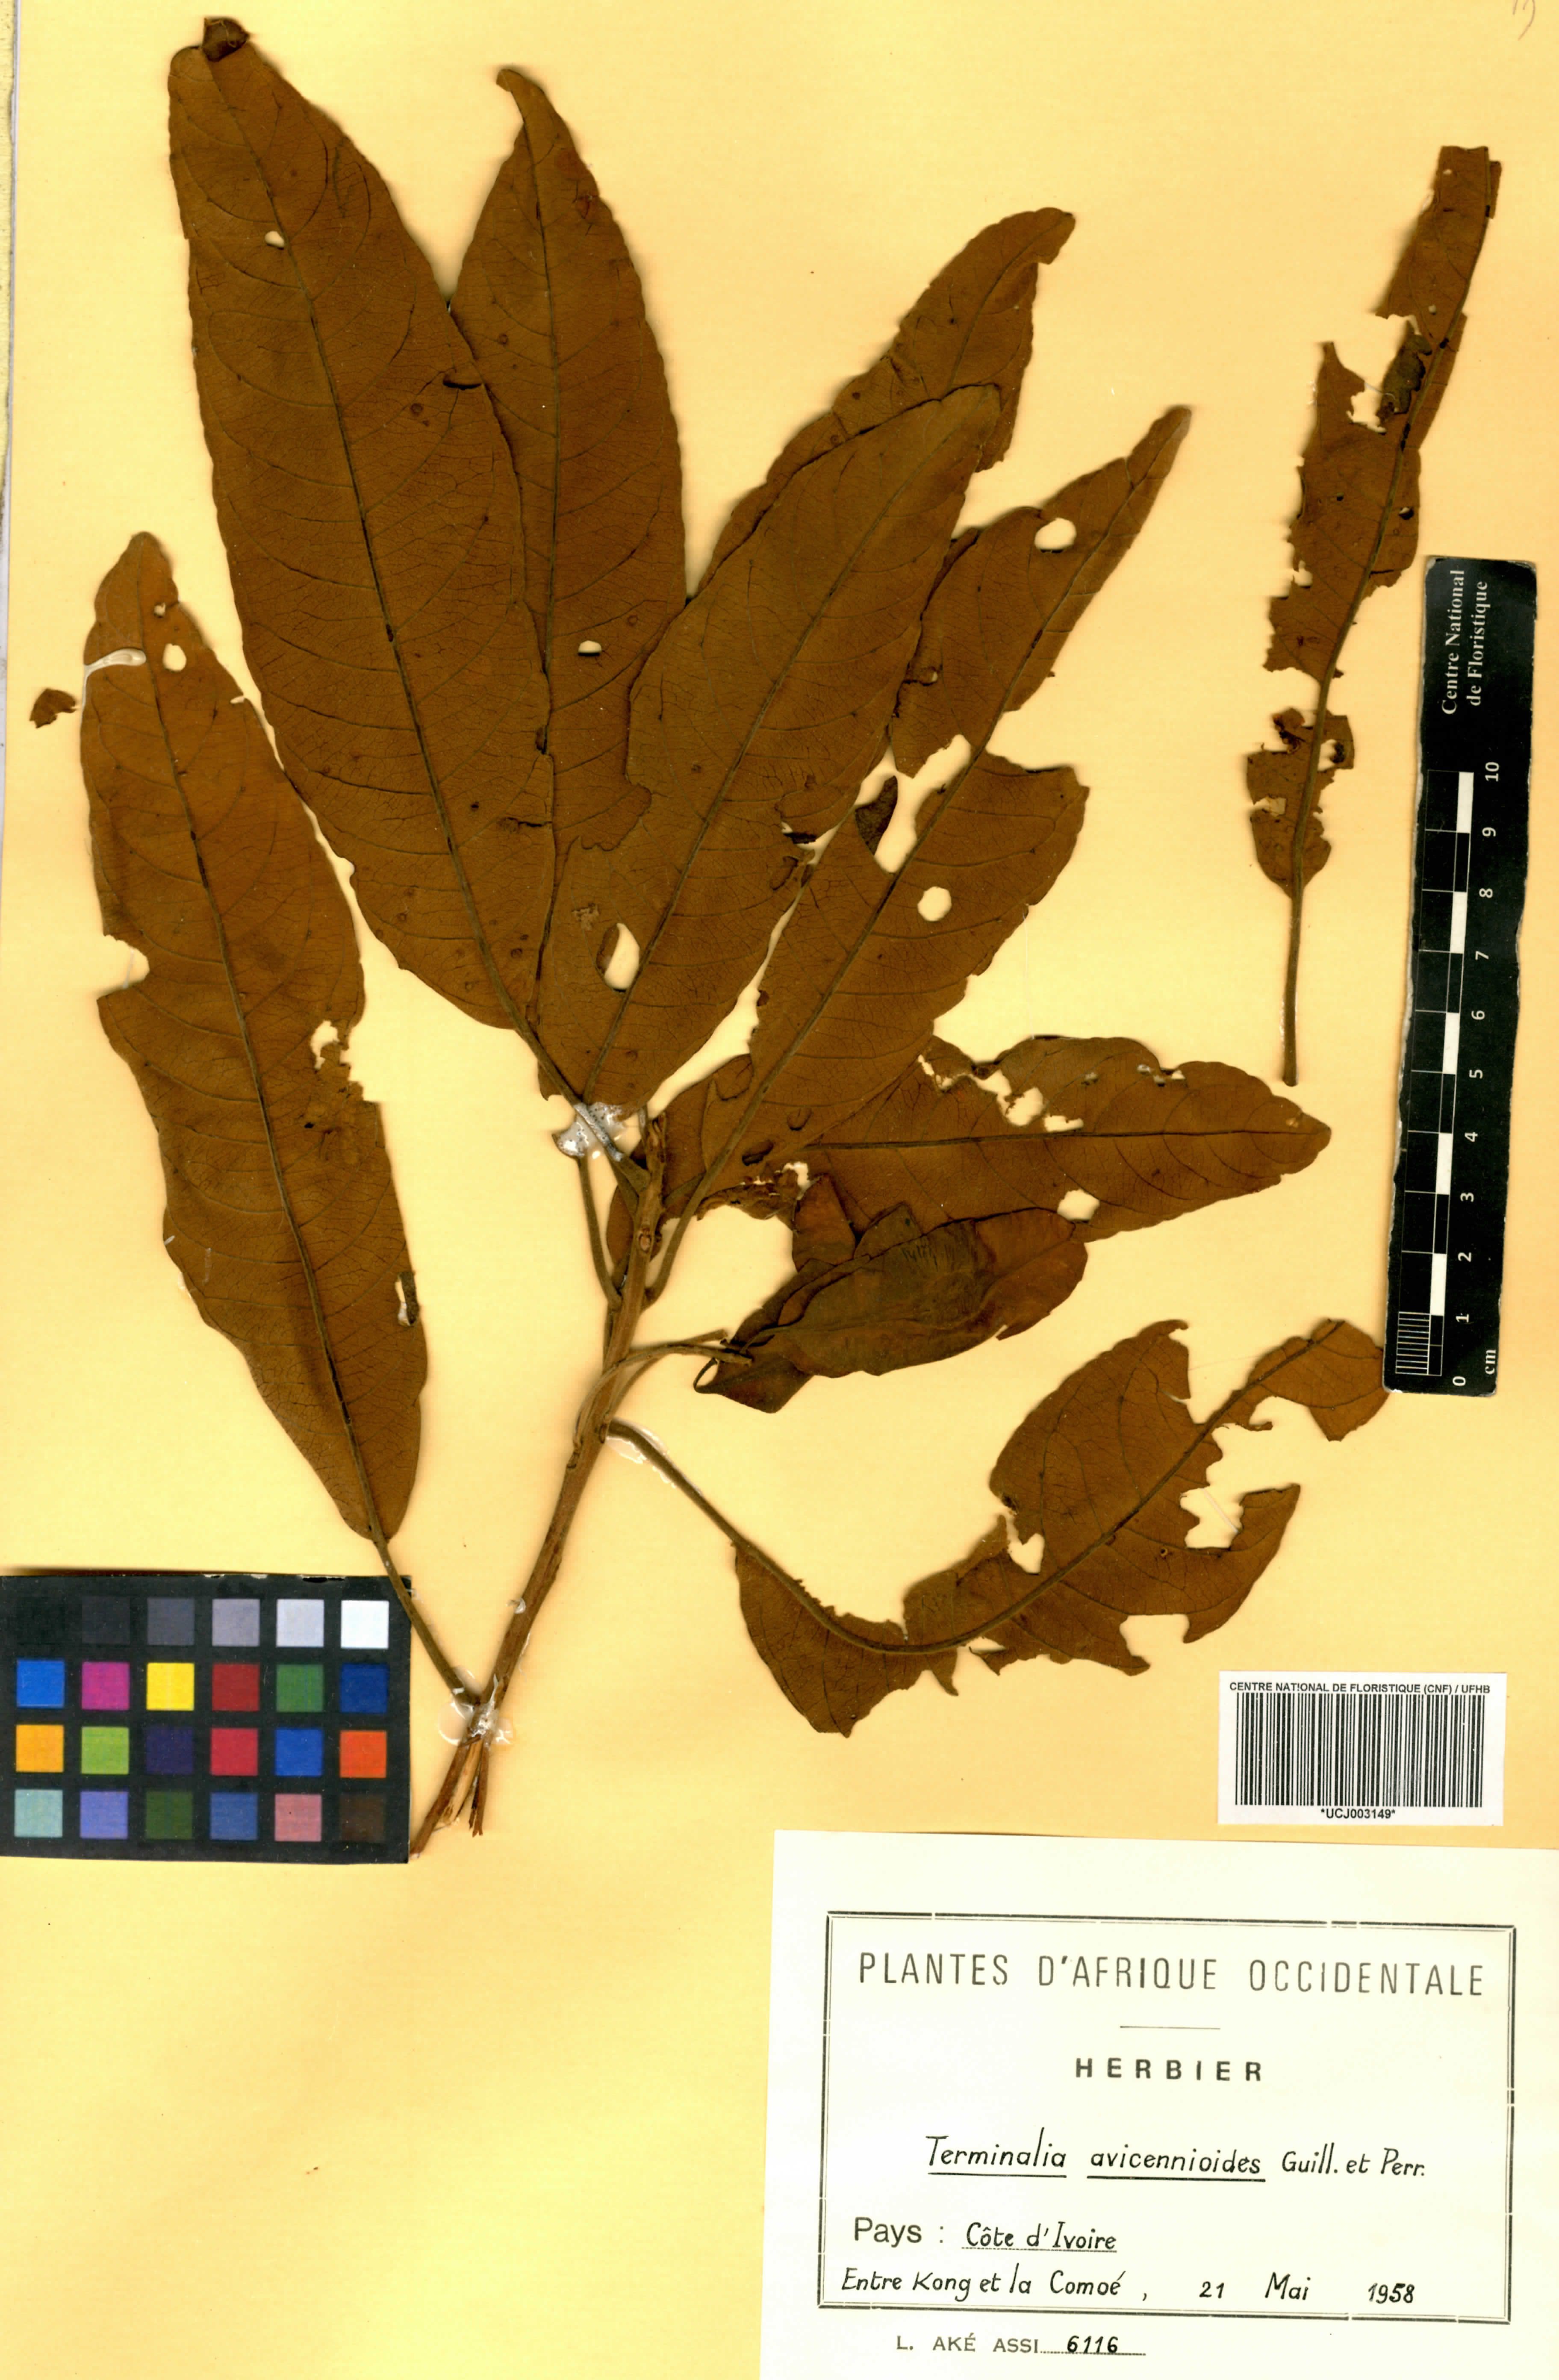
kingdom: Plantae
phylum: Tracheophyta
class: Magnoliopsida
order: Myrtales
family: Combretaceae
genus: Terminalia
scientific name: Terminalia avicennioides
